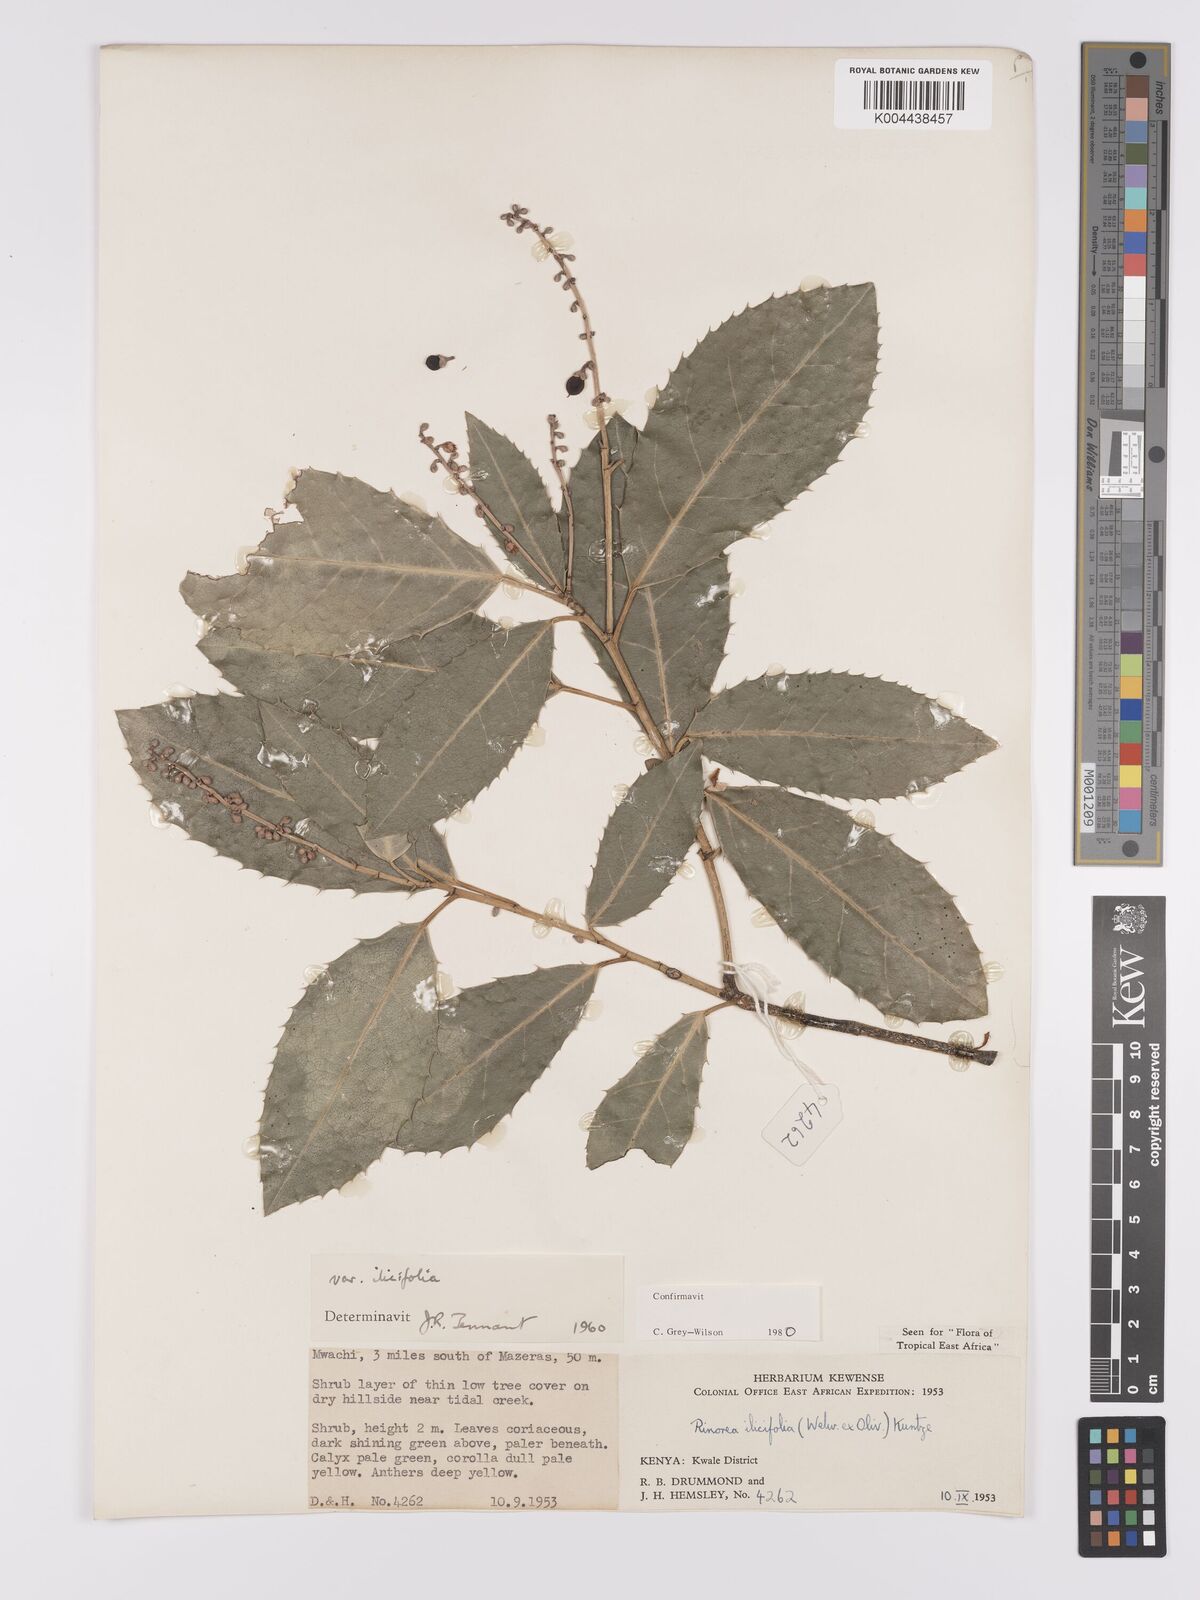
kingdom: Plantae
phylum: Tracheophyta
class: Magnoliopsida
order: Malpighiales
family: Violaceae
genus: Rinorea
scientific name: Rinorea ilicifolia
